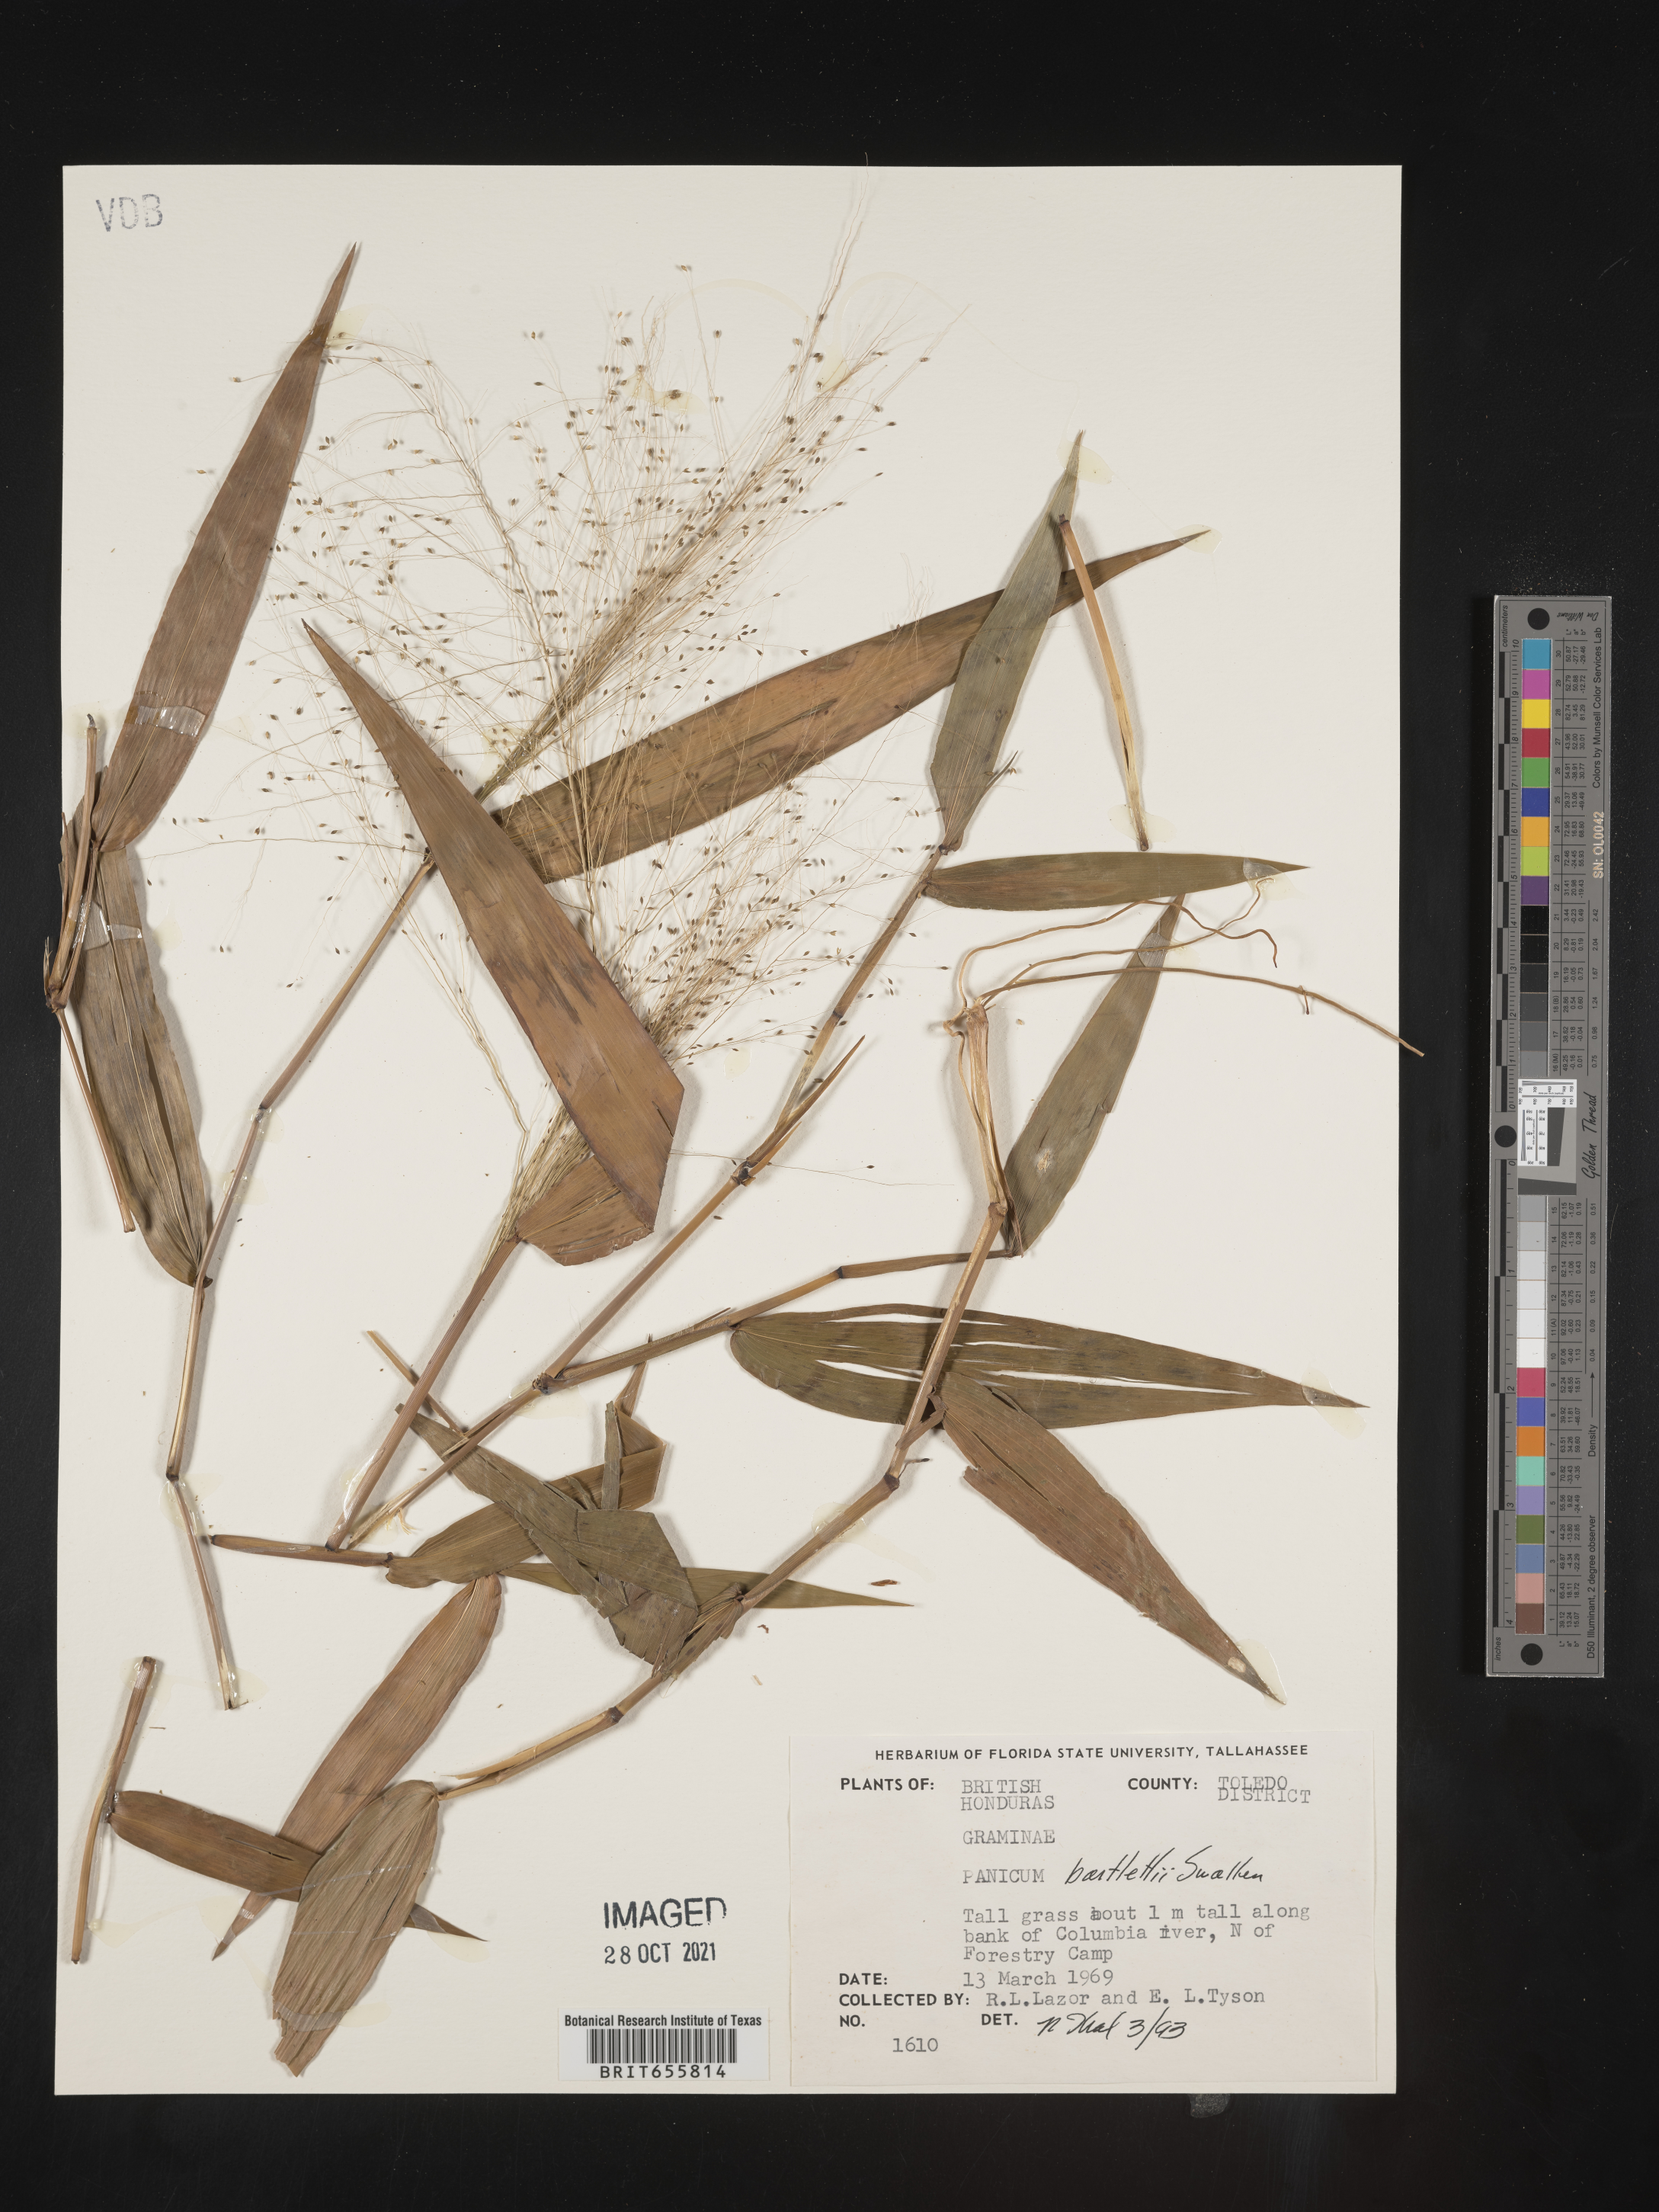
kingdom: Plantae
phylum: Tracheophyta
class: Liliopsida
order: Poales
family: Poaceae
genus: Panicum
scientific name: Panicum
